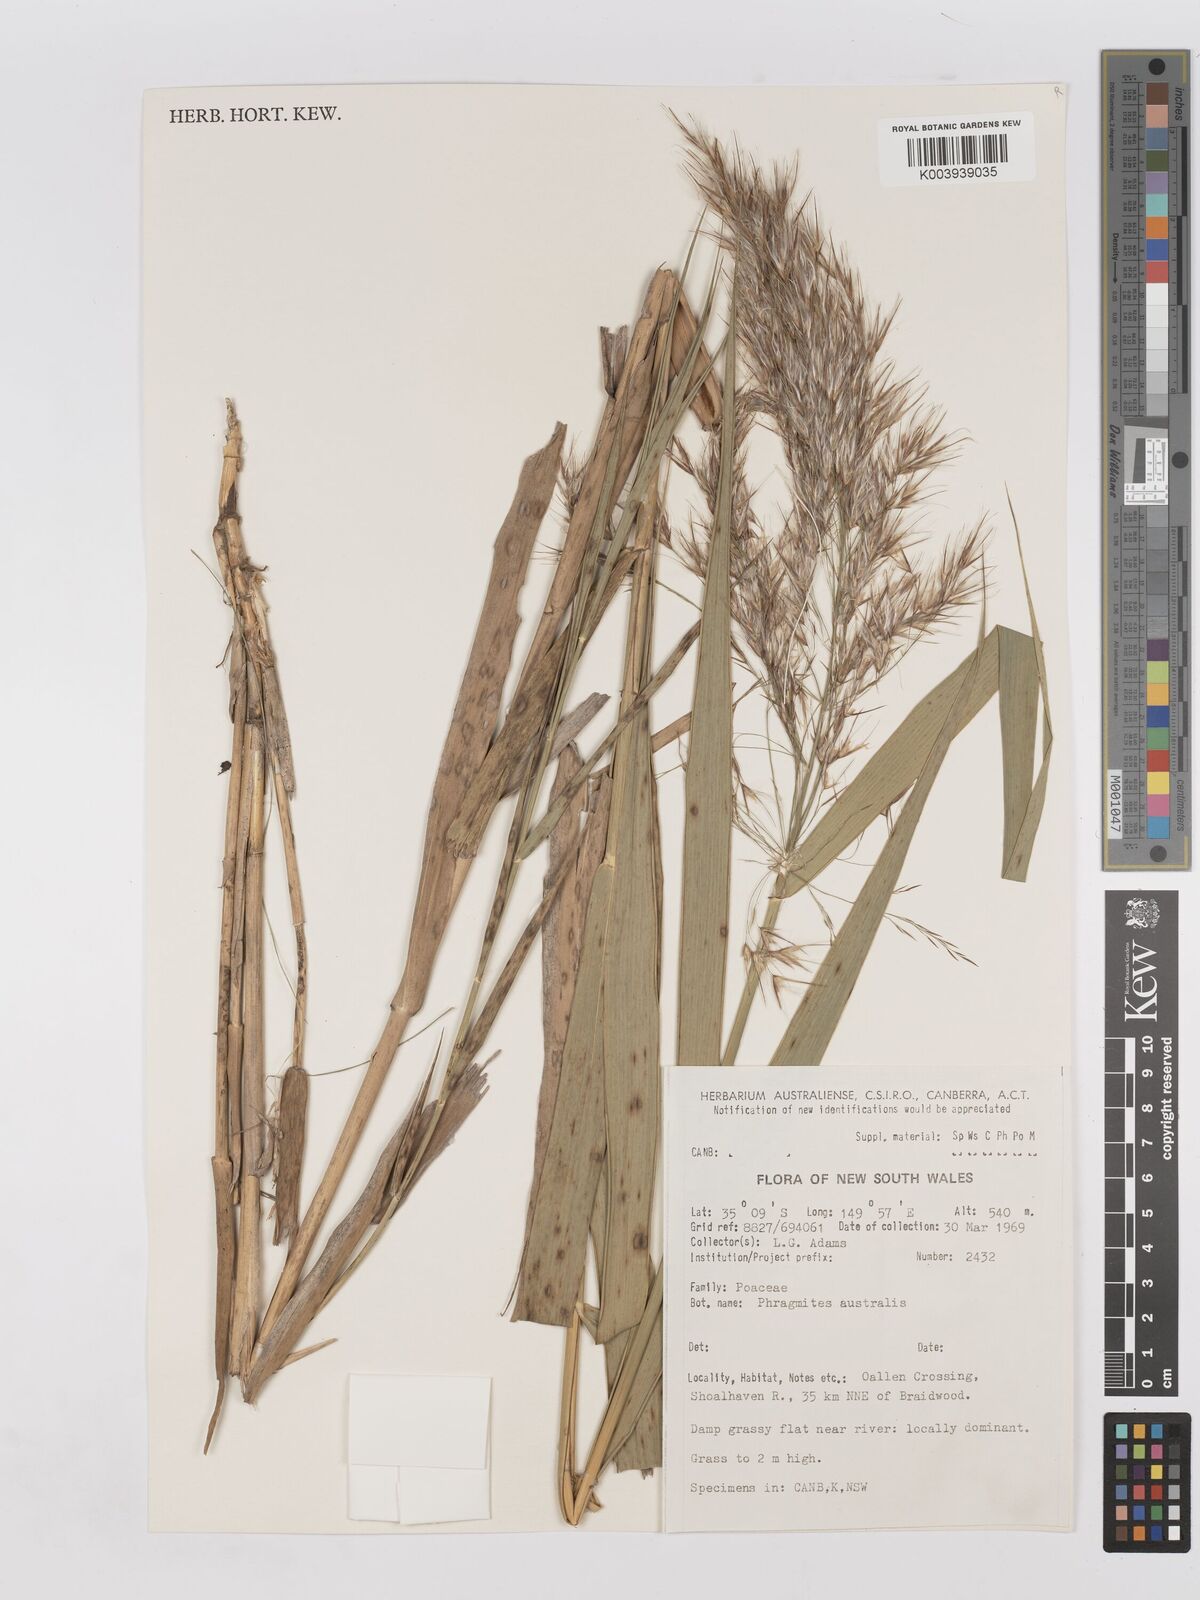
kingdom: Plantae
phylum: Tracheophyta
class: Liliopsida
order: Poales
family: Poaceae
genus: Phragmites
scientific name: Phragmites australis
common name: Common reed
